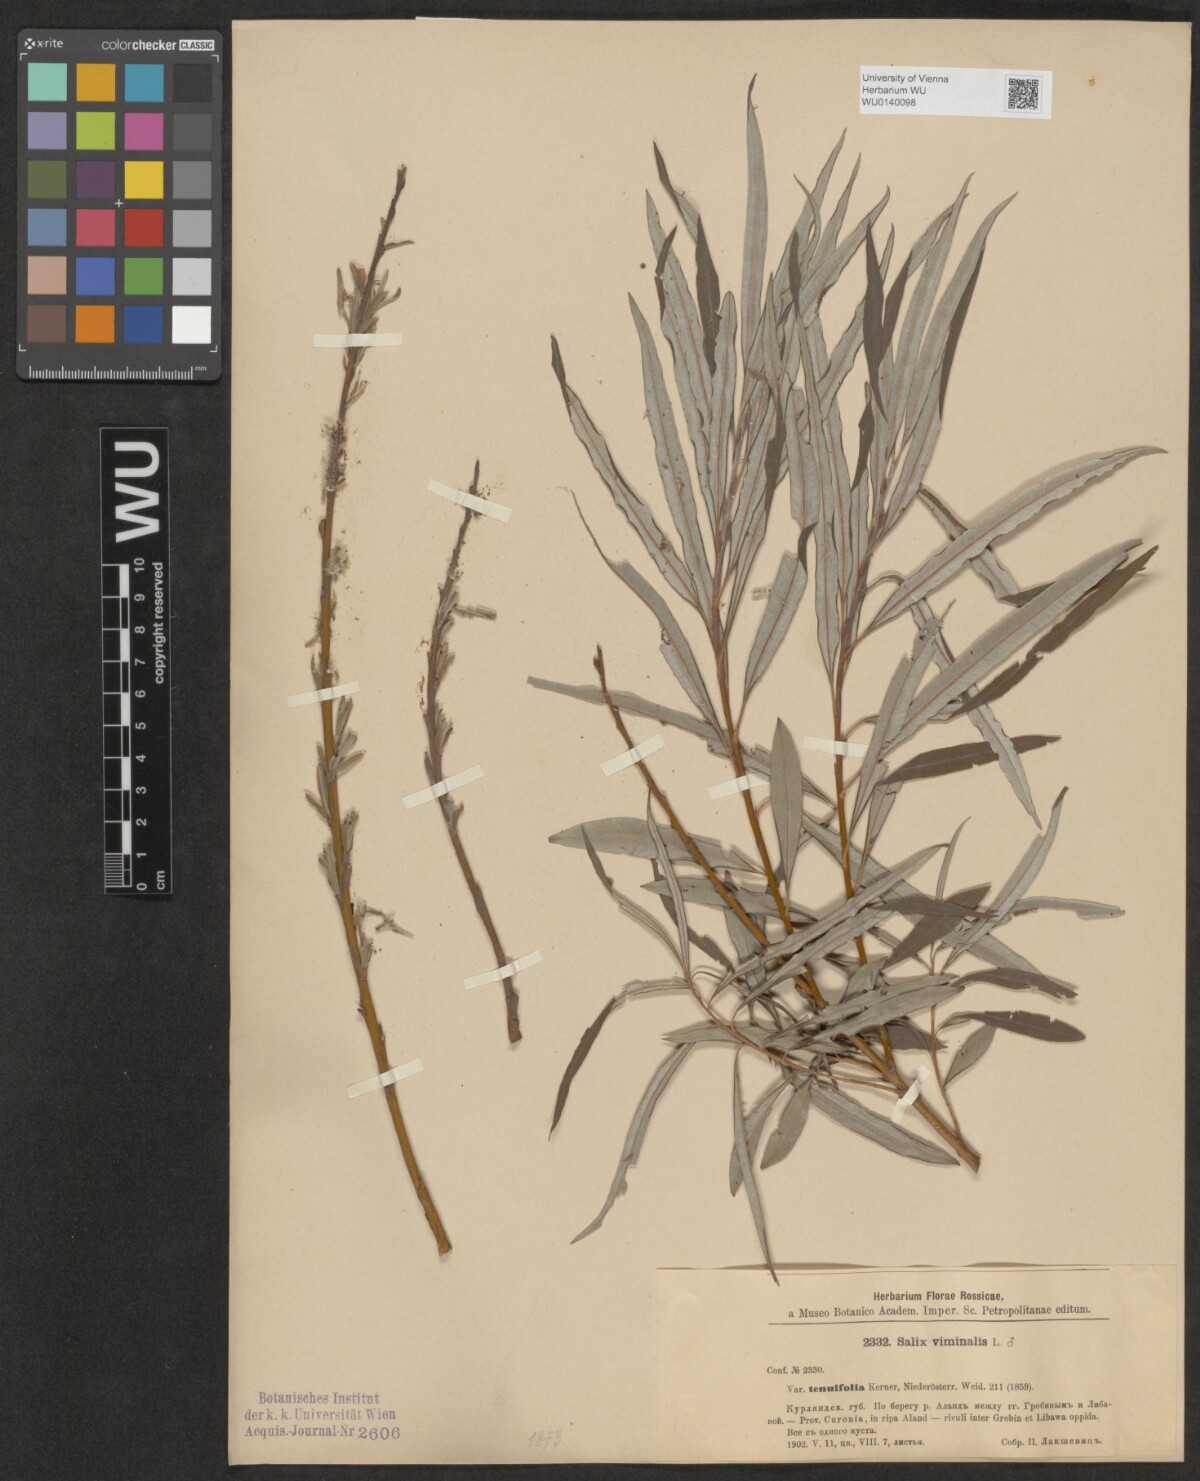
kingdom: Plantae
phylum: Tracheophyta
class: Magnoliopsida
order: Malpighiales
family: Salicaceae
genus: Salix
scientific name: Salix viminalis
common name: Osier
